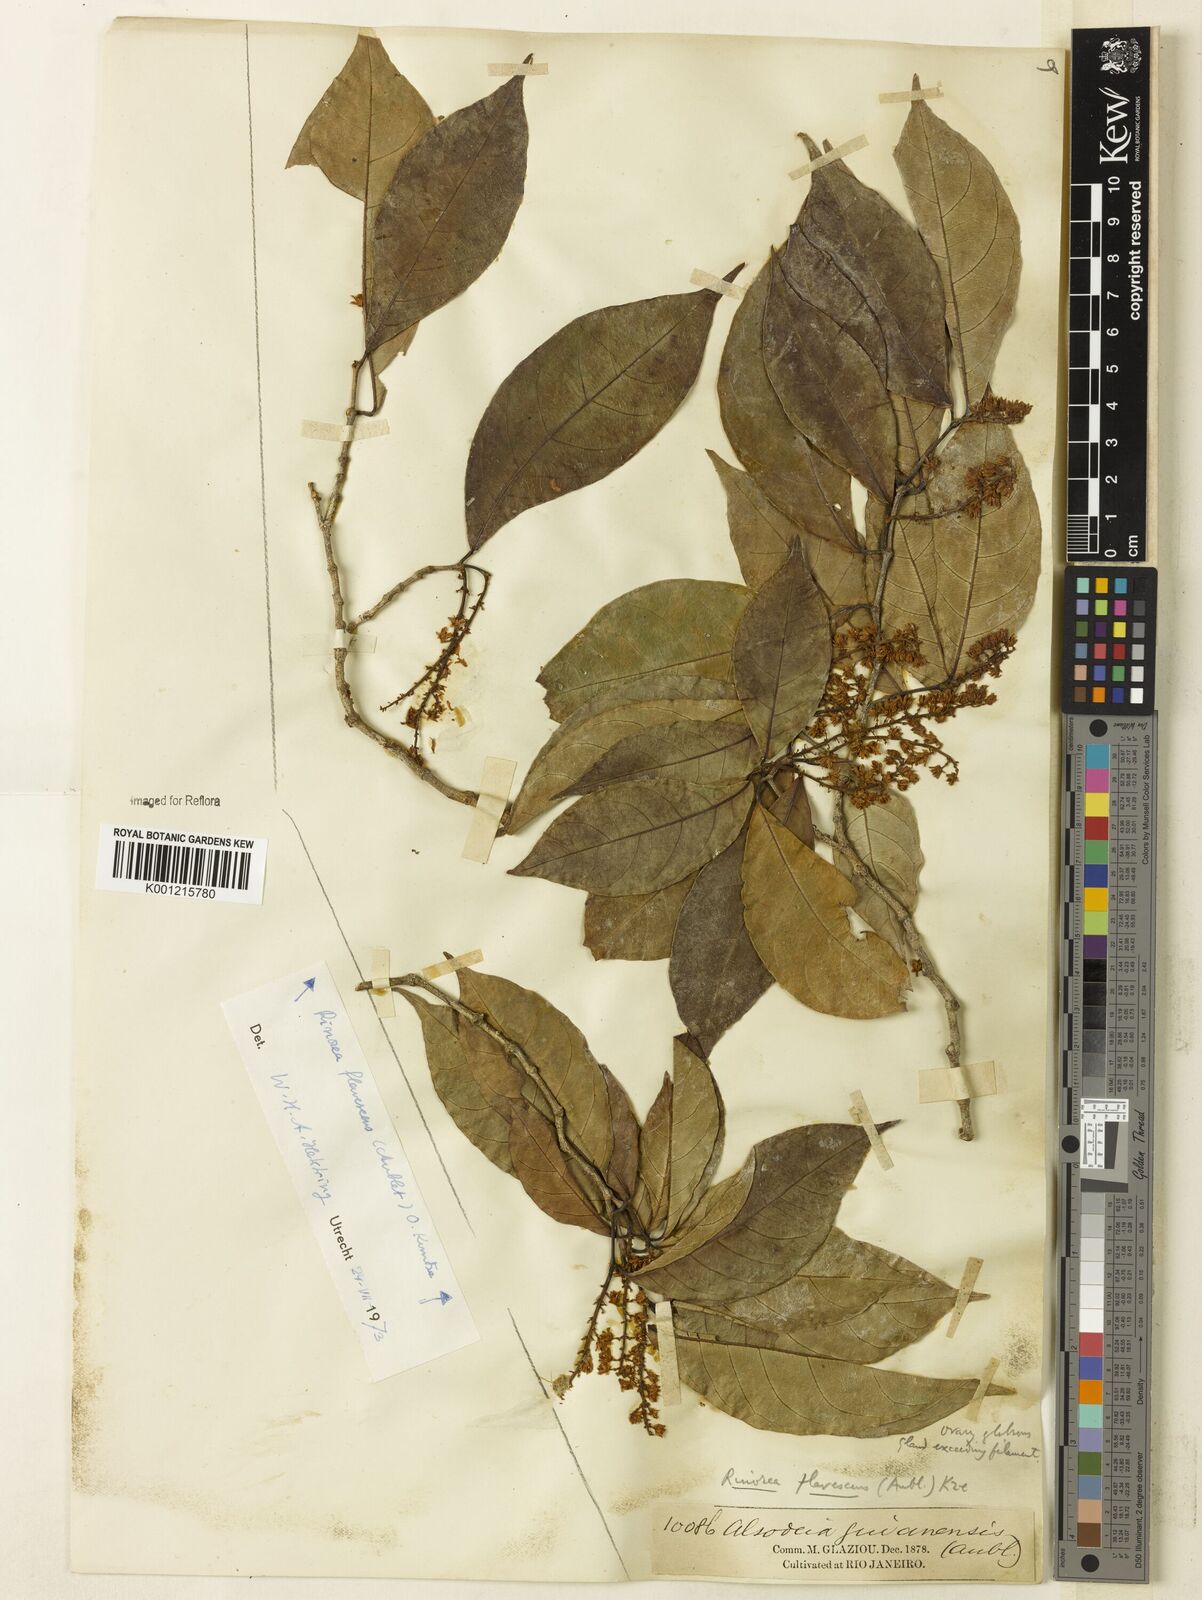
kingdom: Plantae
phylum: Tracheophyta
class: Magnoliopsida
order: Malpighiales
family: Violaceae
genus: Rinorea
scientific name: Rinorea flavescens
